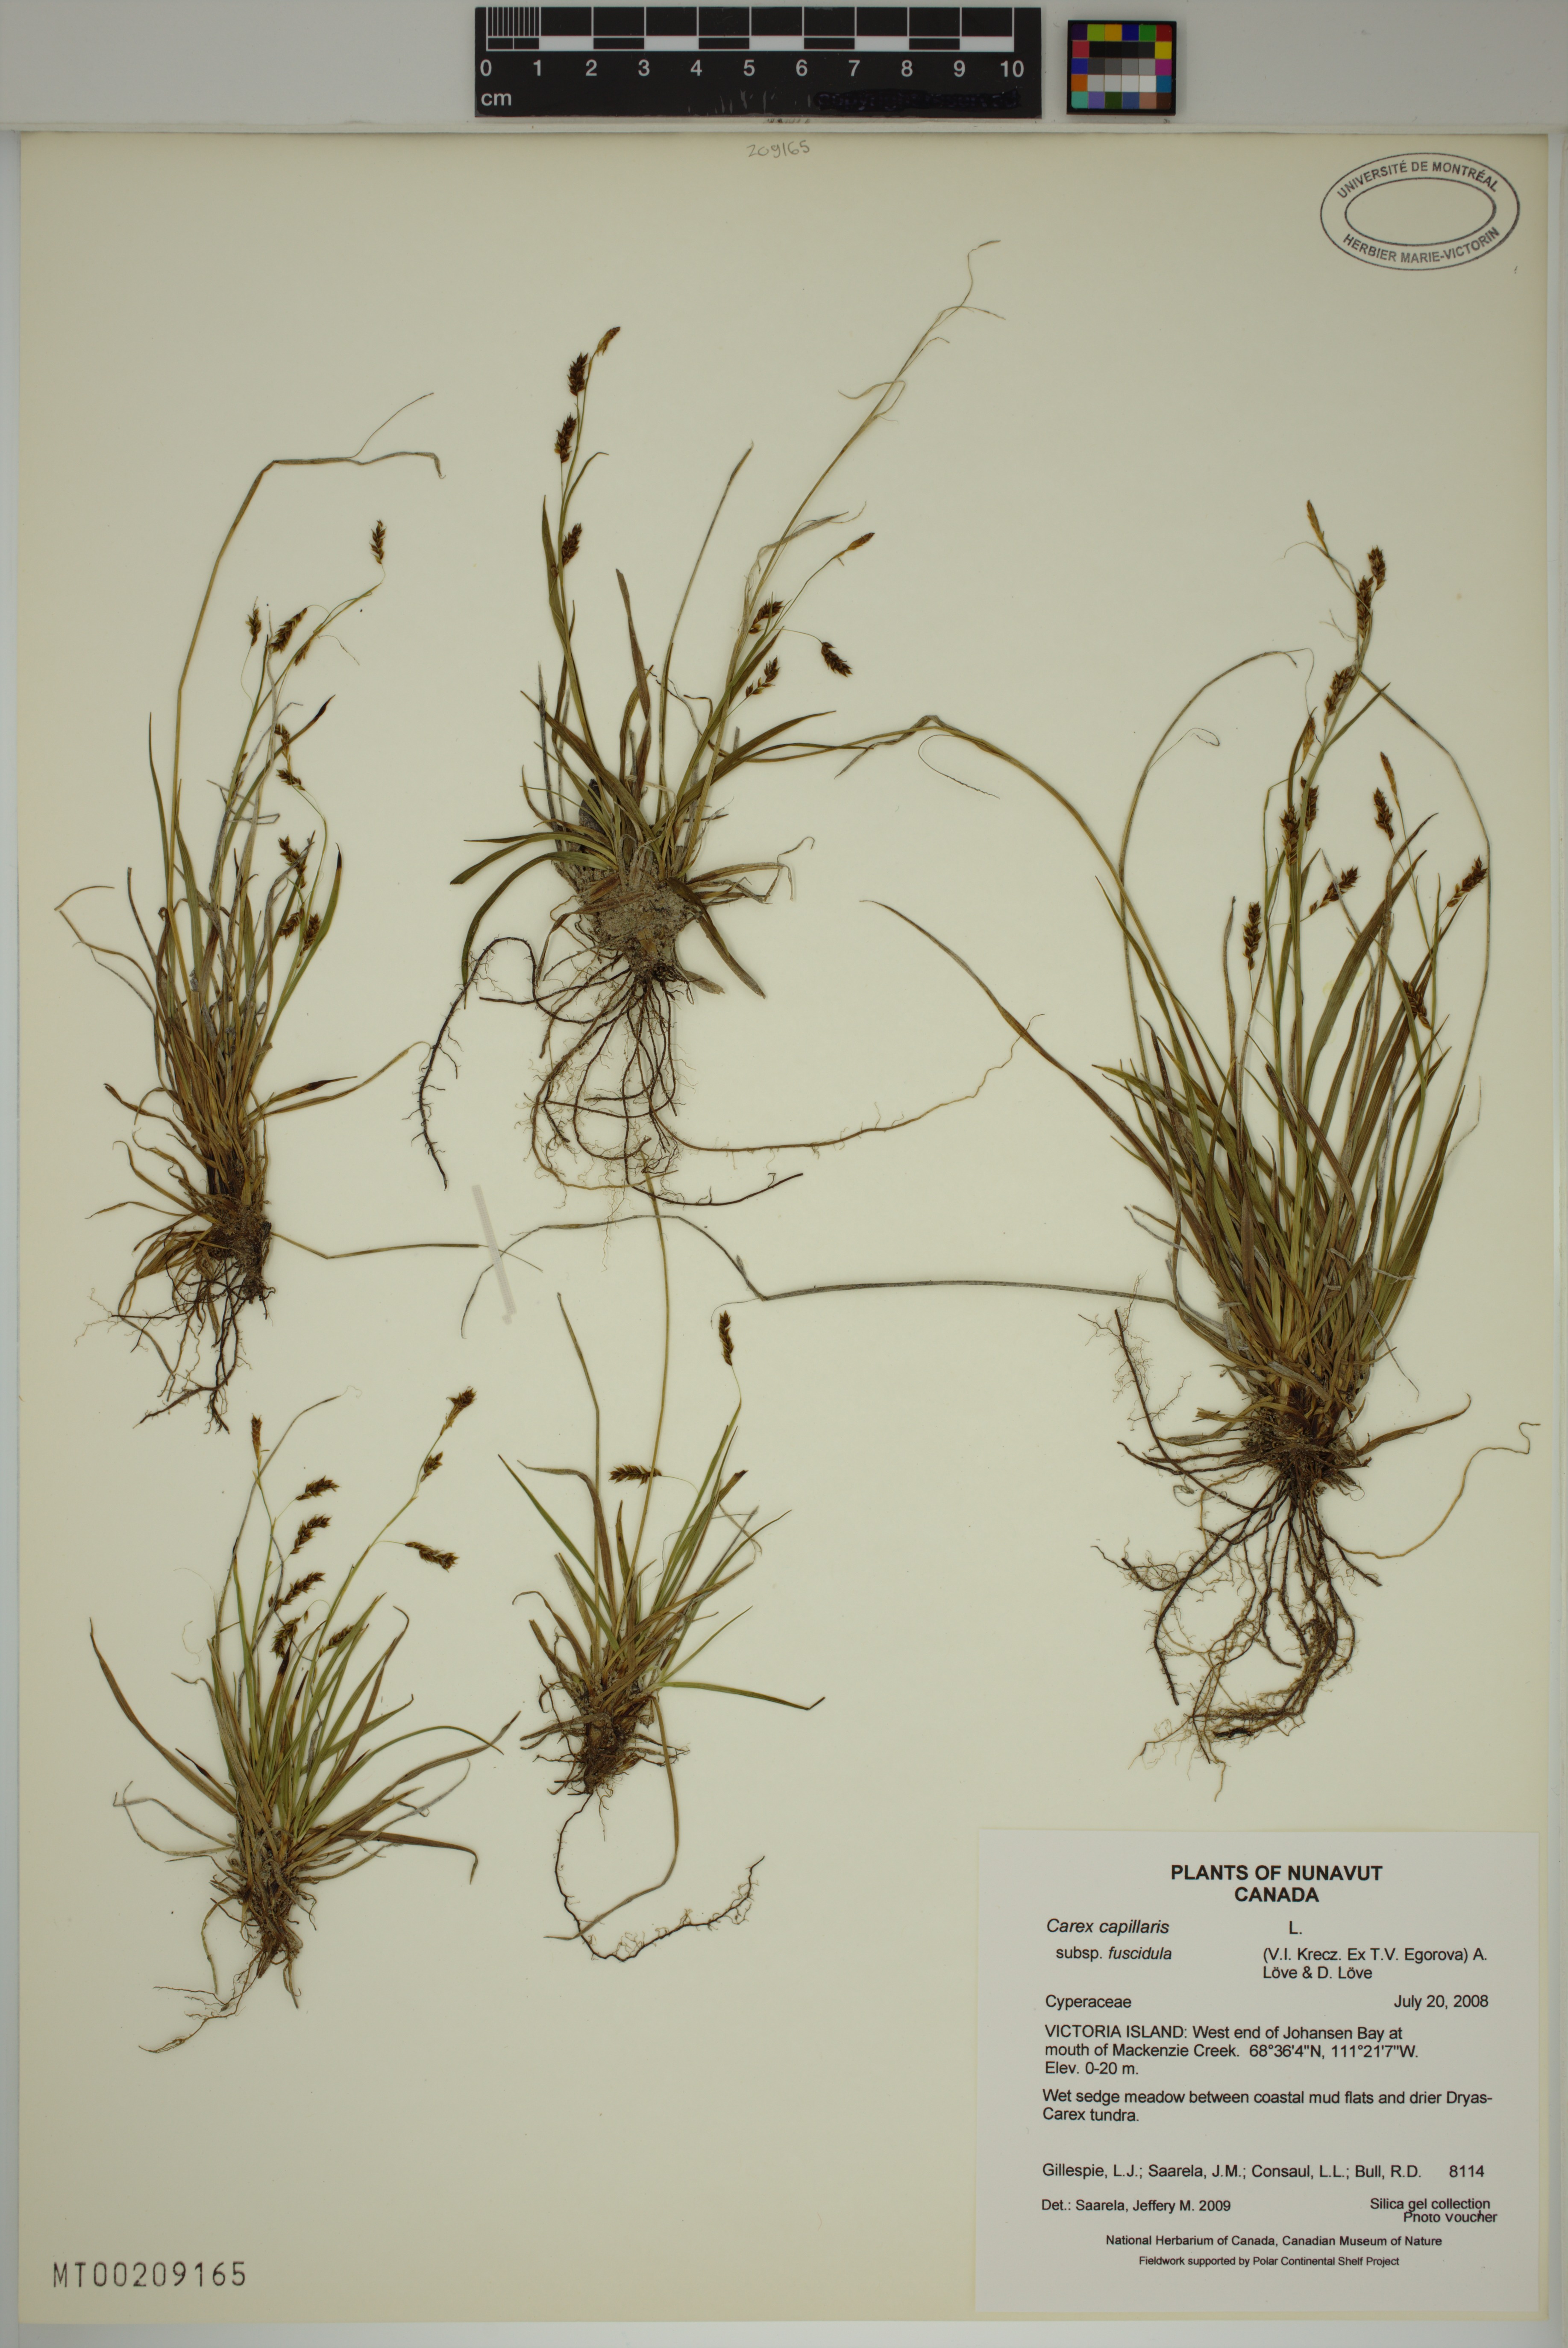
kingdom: Plantae
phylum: Tracheophyta
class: Liliopsida
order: Poales
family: Cyperaceae
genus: Carex
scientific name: Carex capillaris
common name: Hair sedge
